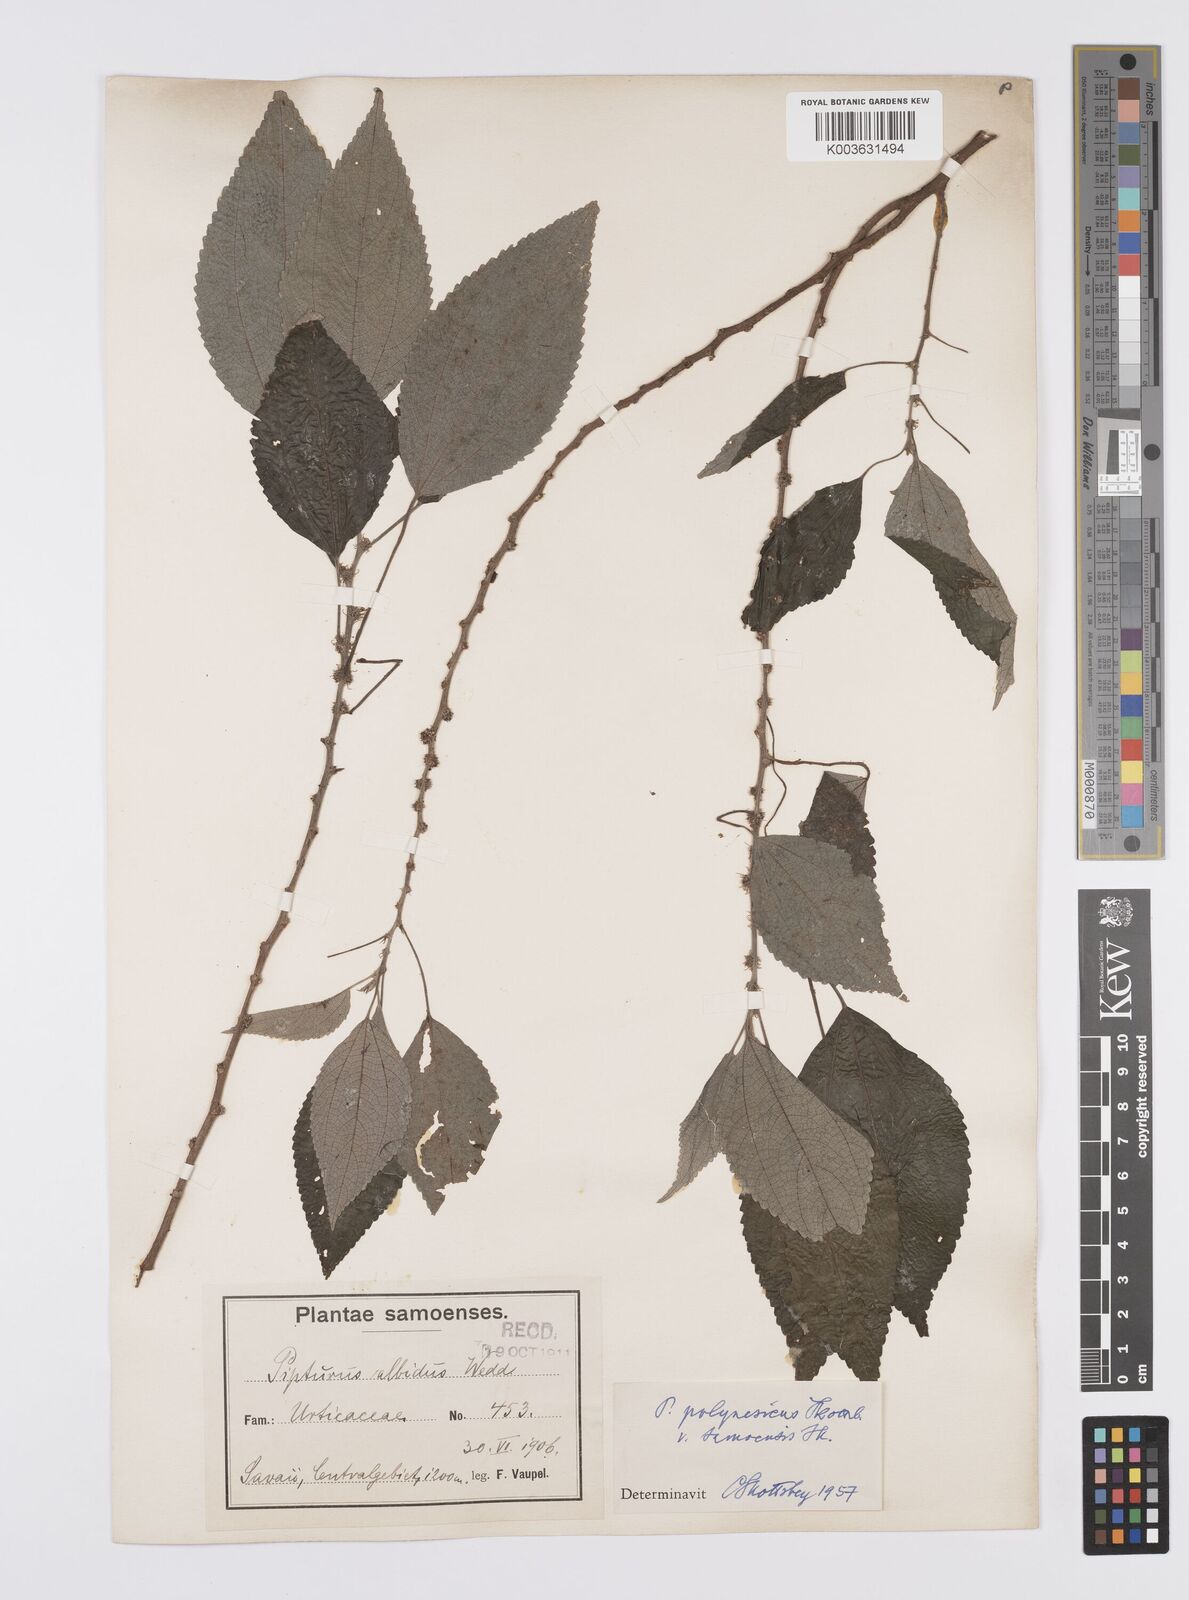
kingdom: Plantae
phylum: Tracheophyta
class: Magnoliopsida
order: Rosales
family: Urticaceae
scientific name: Urticaceae
